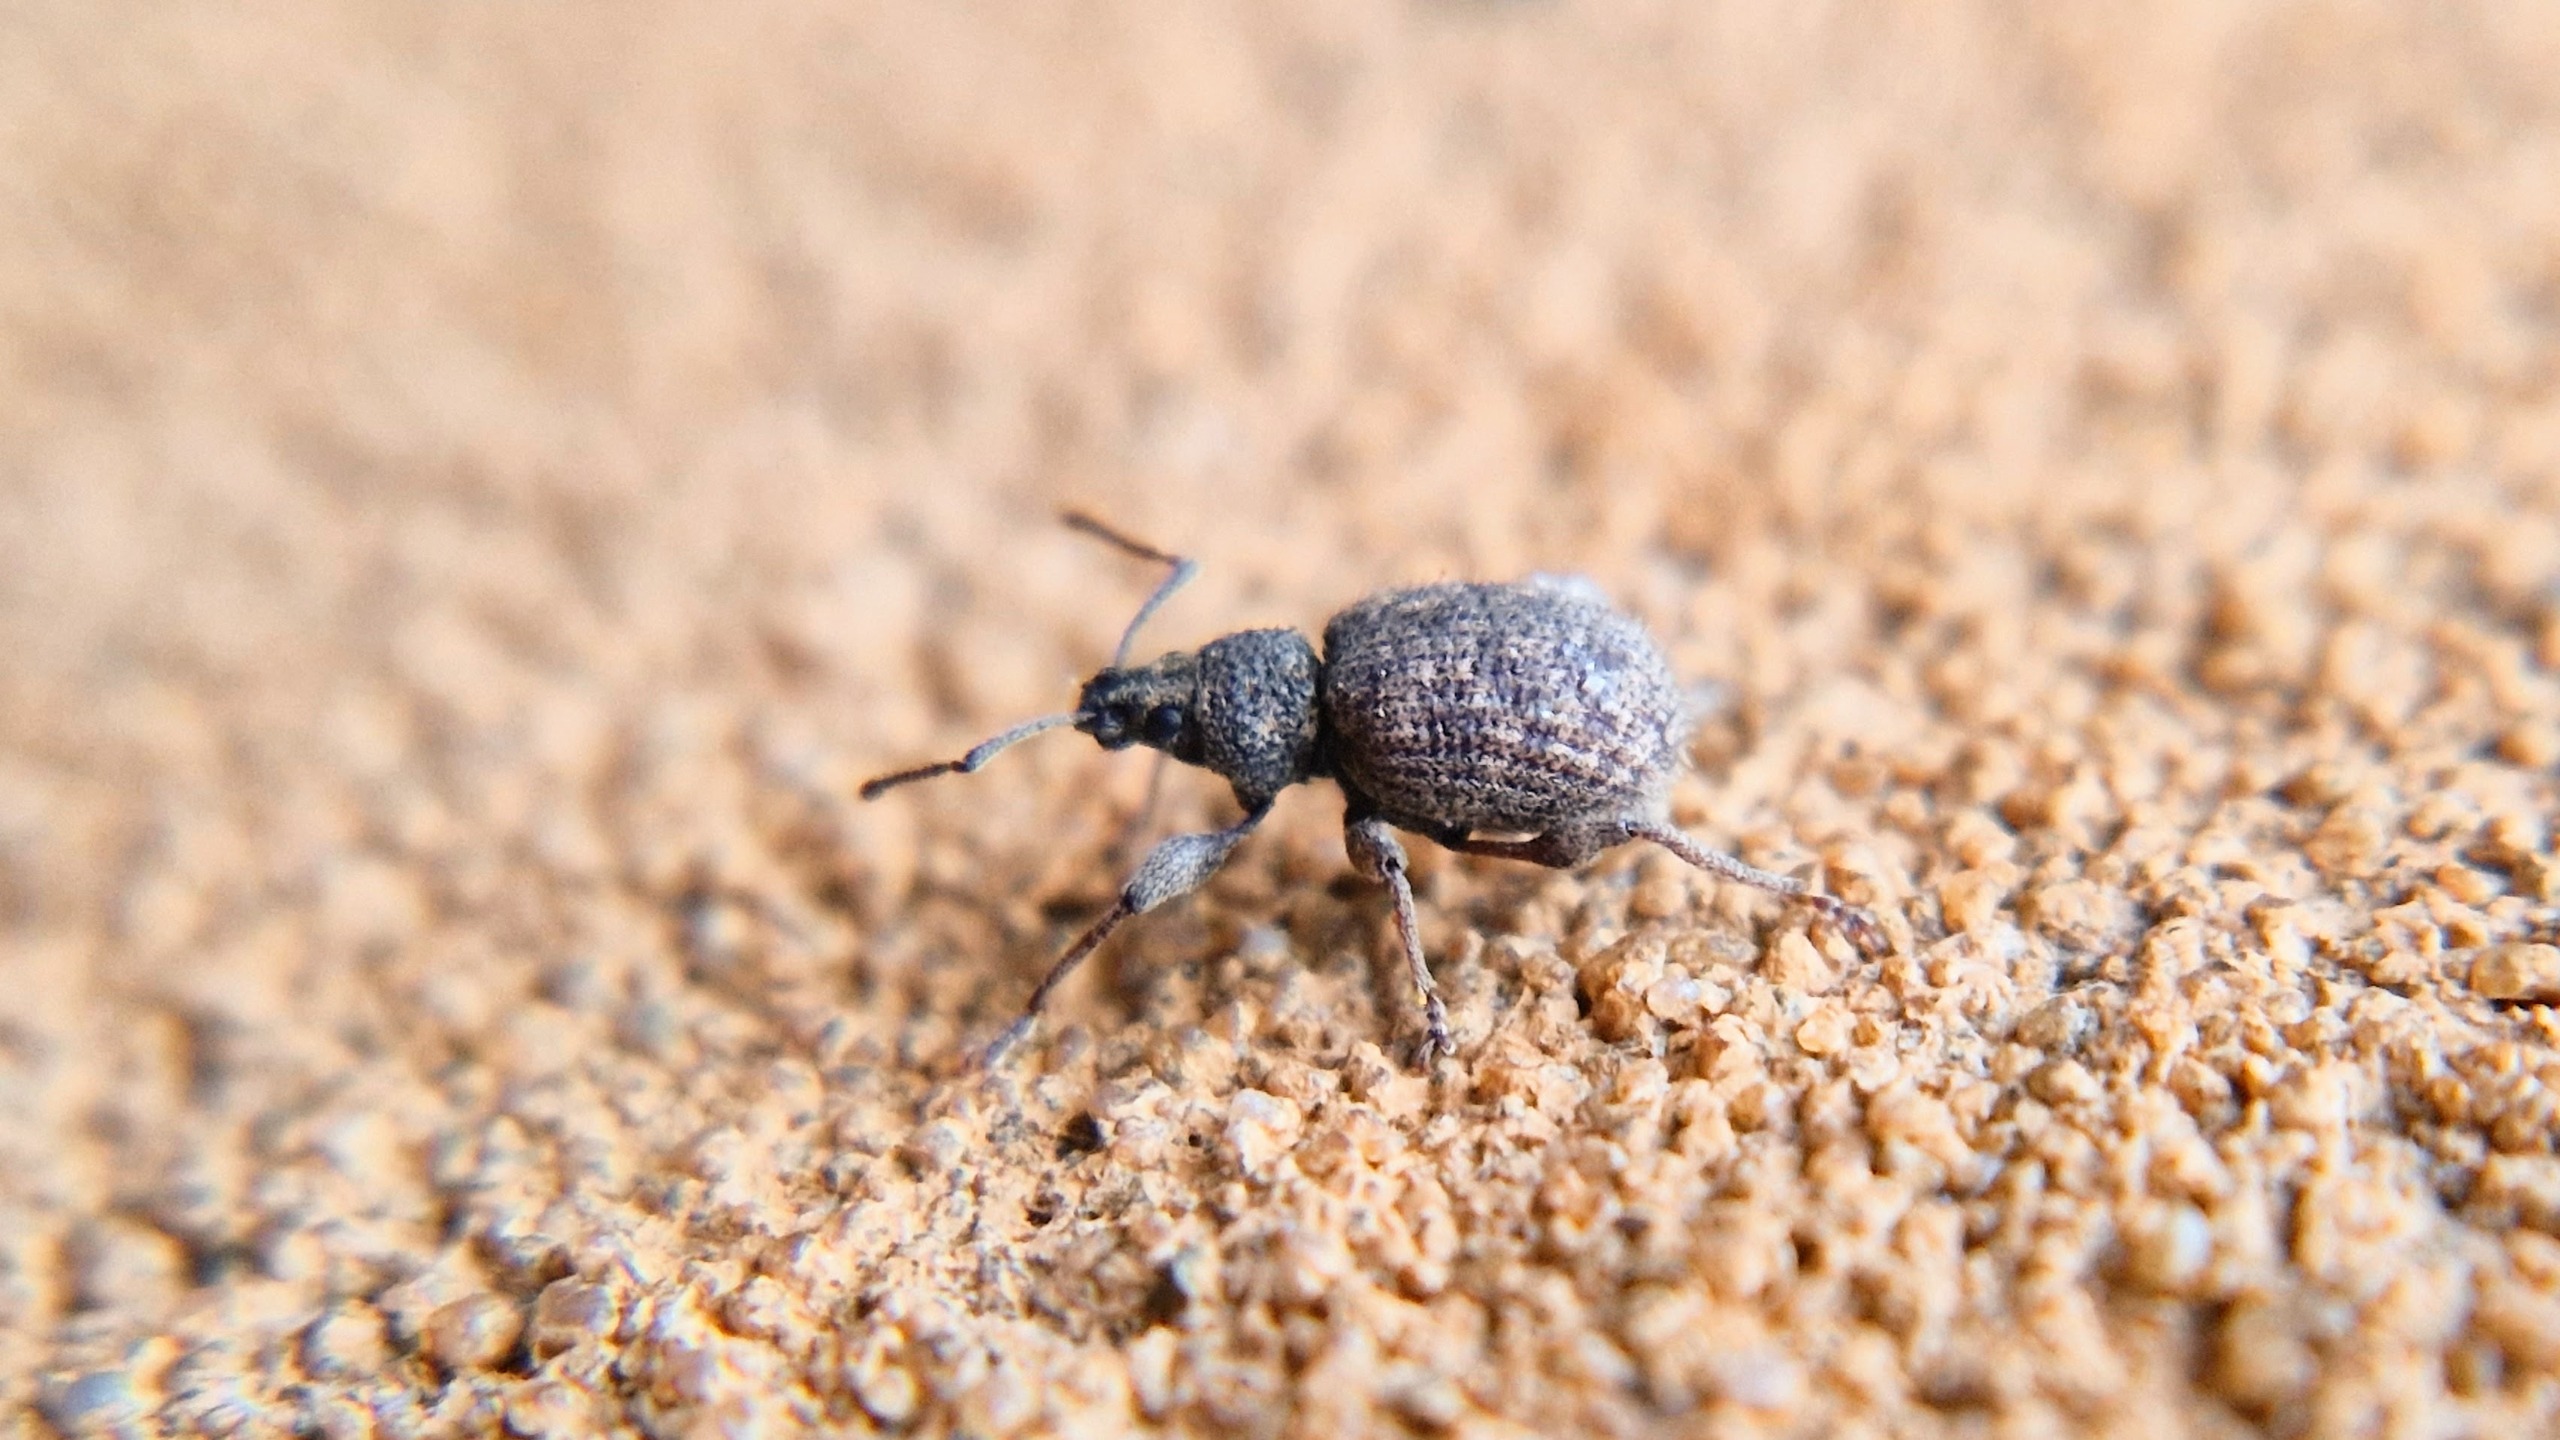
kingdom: Animalia
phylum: Arthropoda
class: Insecta
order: Coleoptera
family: Curculionidae
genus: Otiorhynchus
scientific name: Otiorhynchus crataegi
